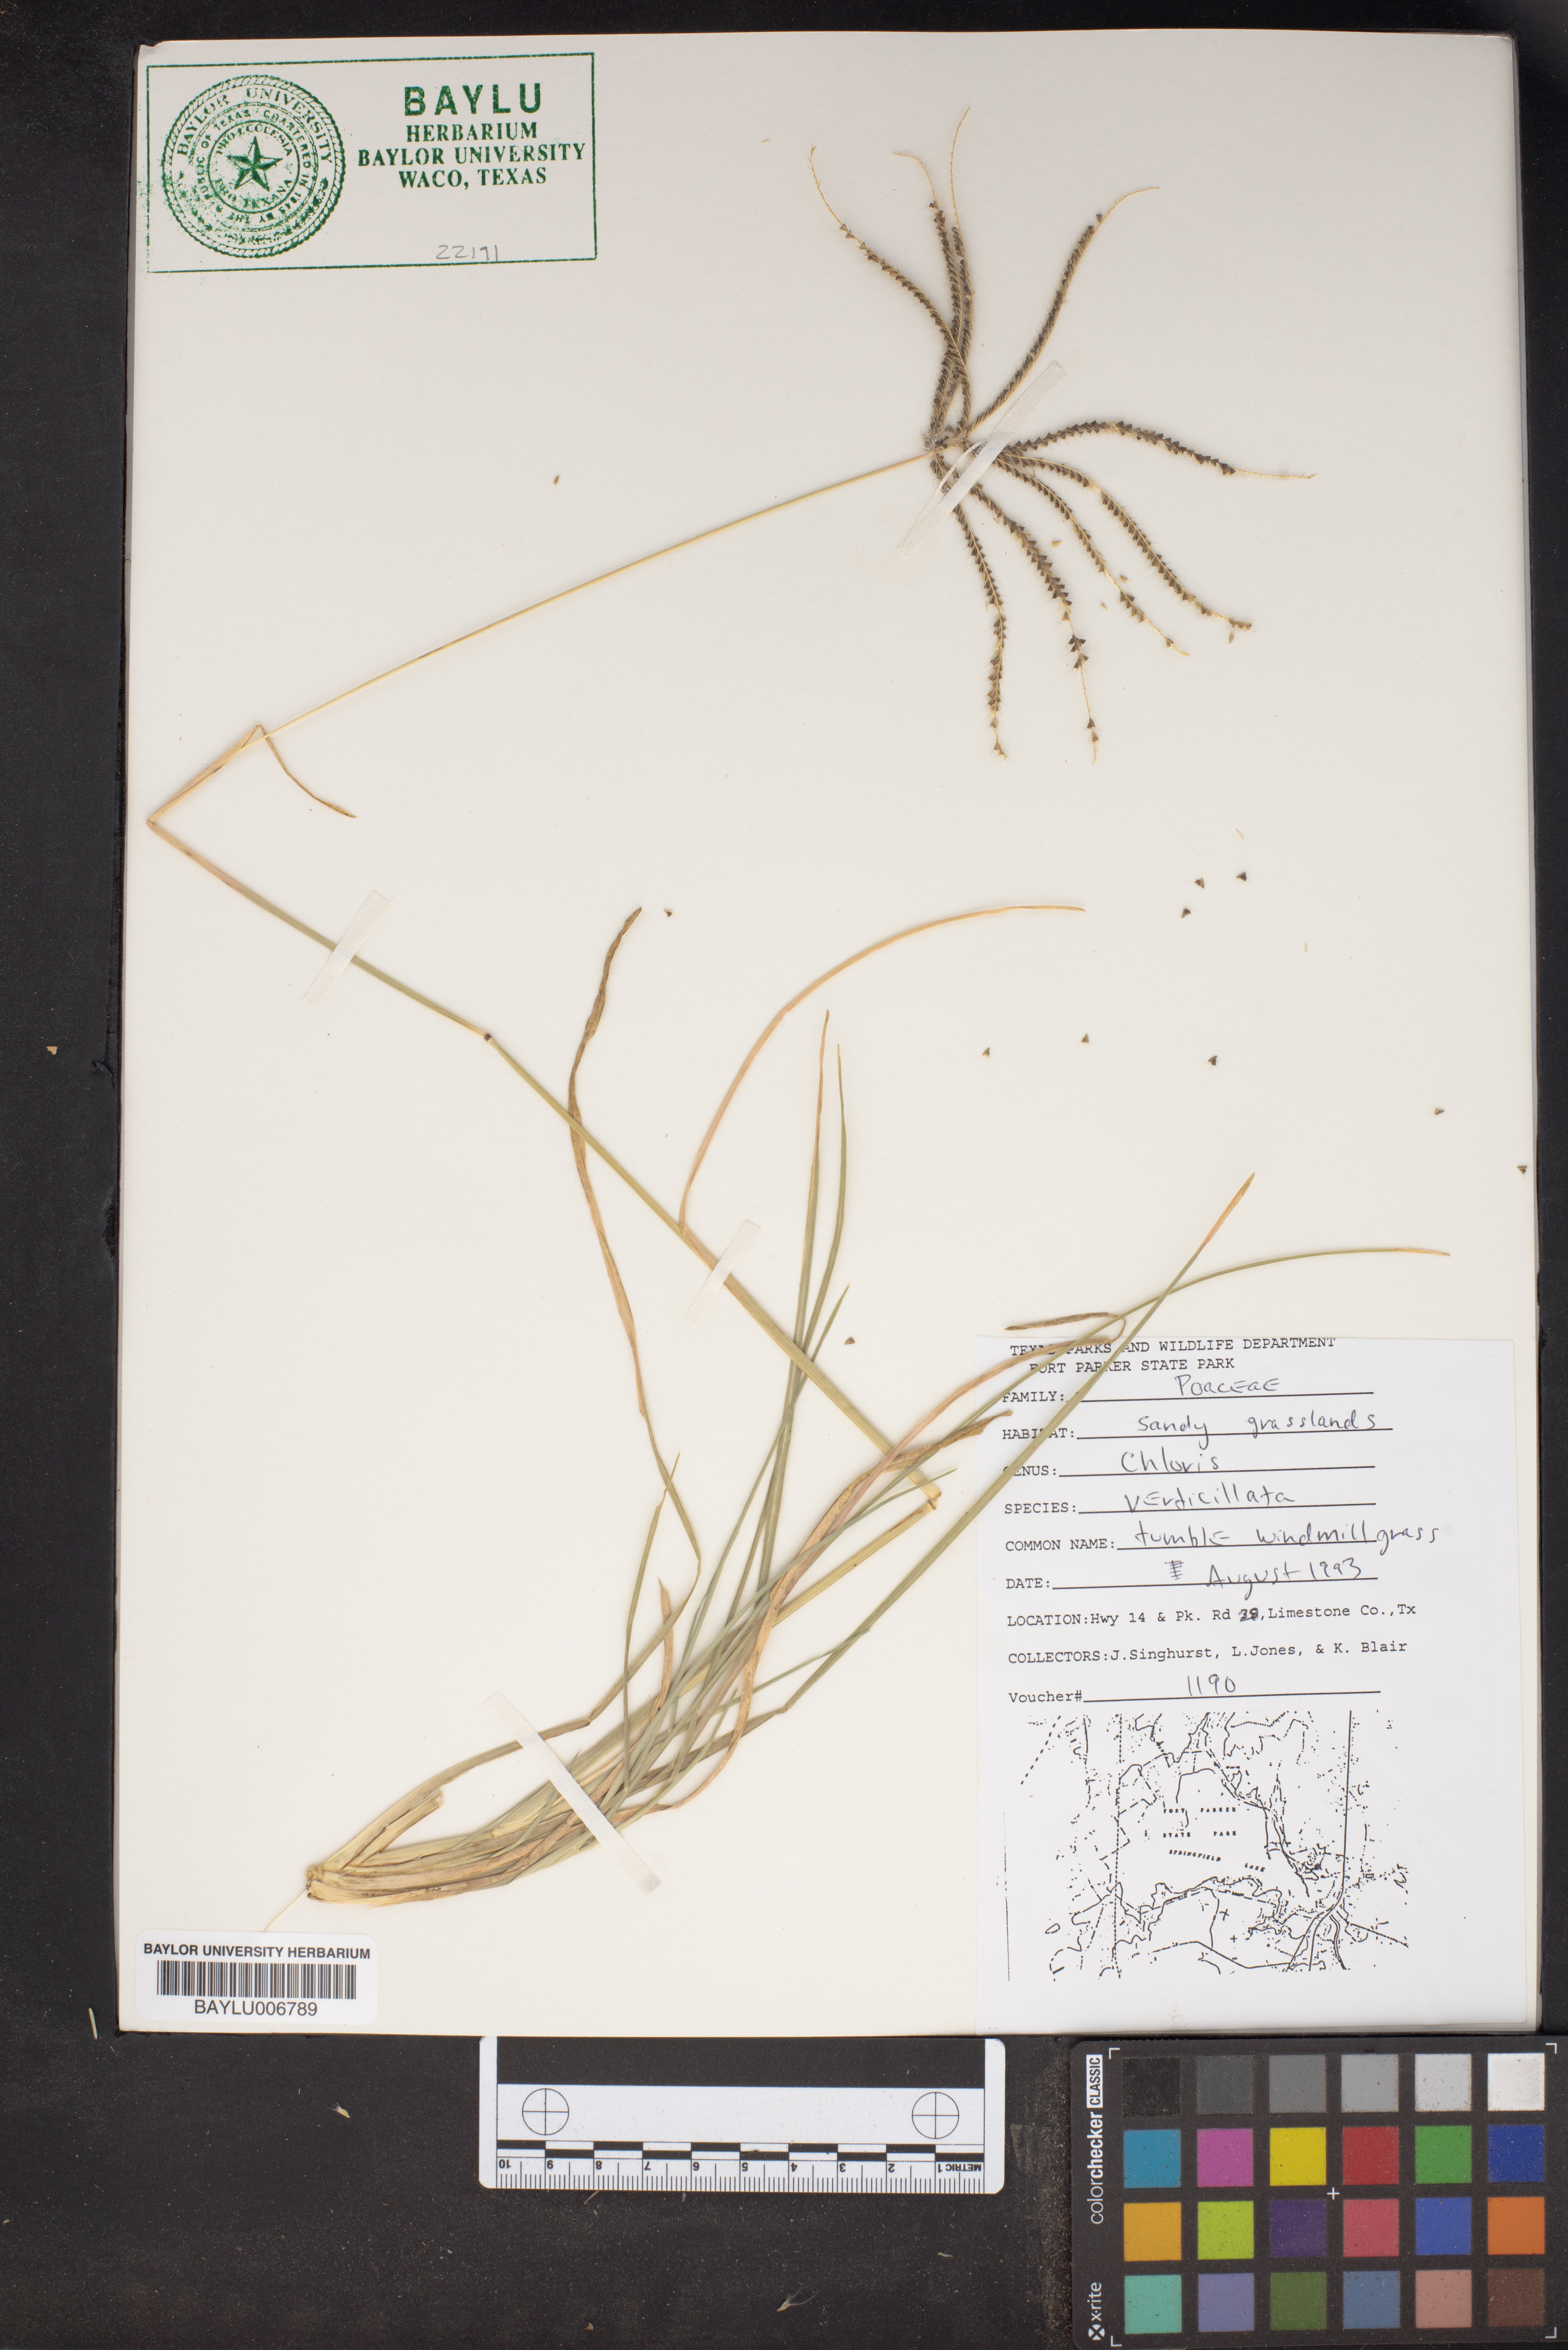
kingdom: Plantae
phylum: Tracheophyta
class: Liliopsida
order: Poales
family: Poaceae
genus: Chloris
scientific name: Chloris verticillata
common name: Tumble windmill grass
